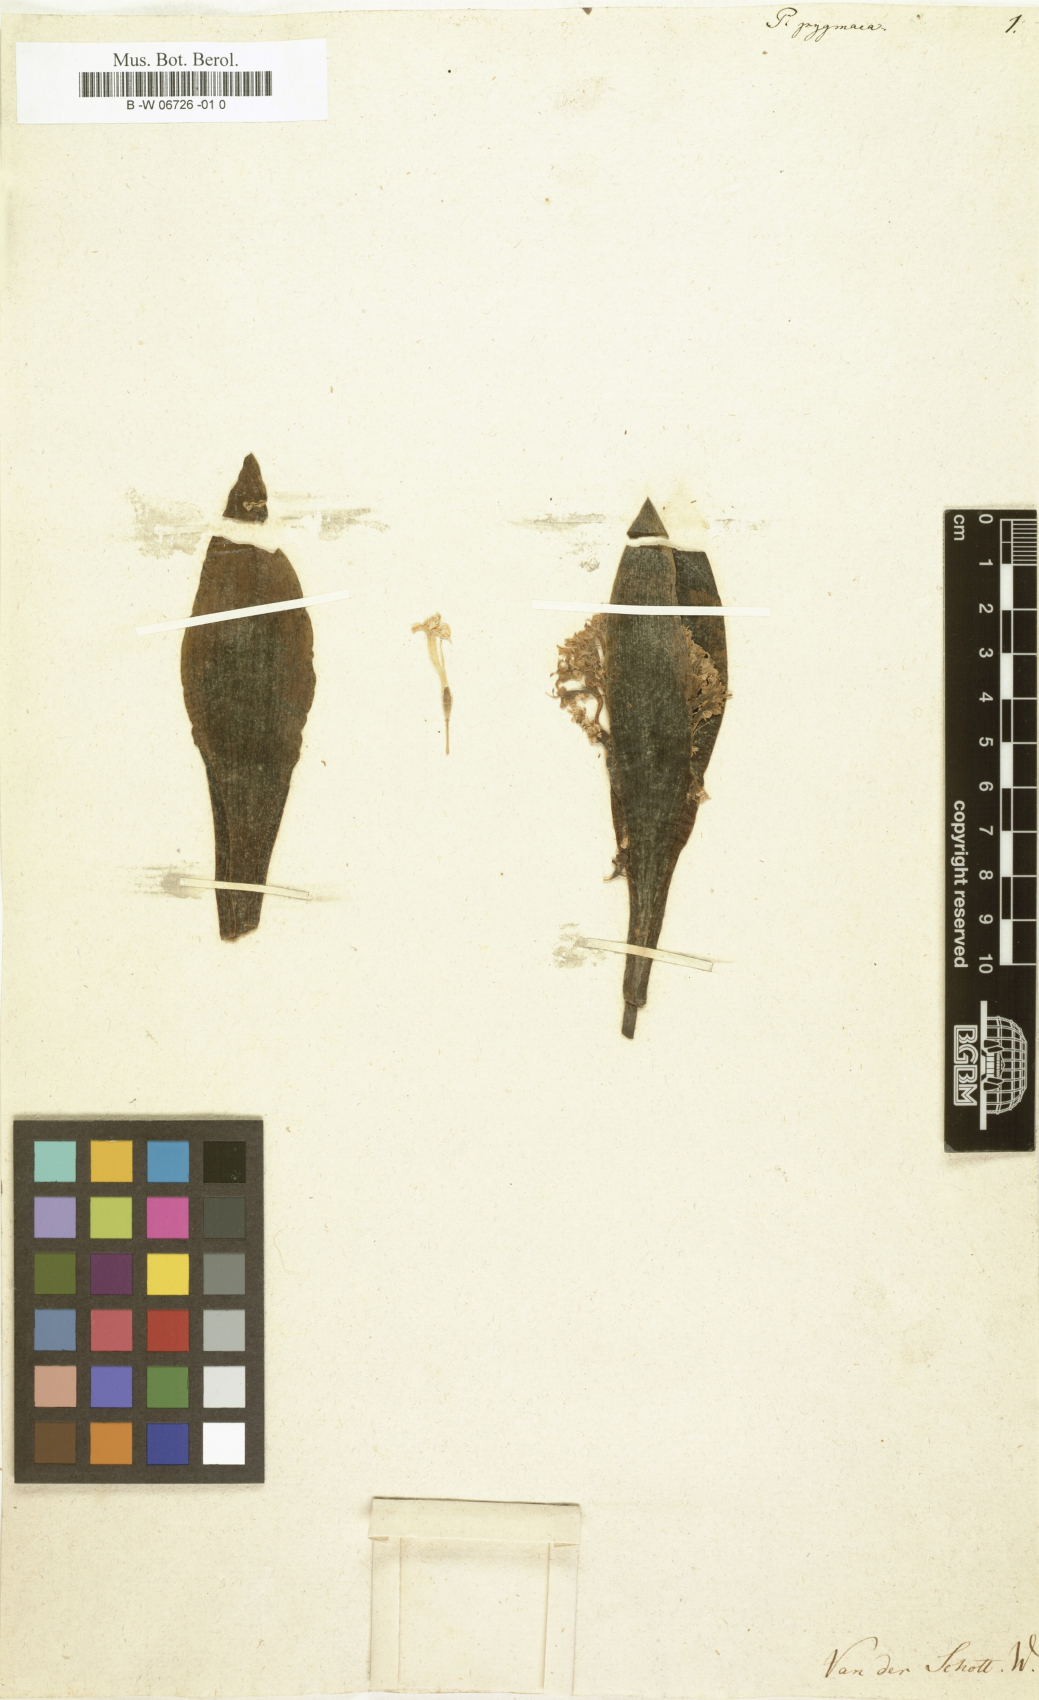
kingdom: Plantae
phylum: Tracheophyta
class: Liliopsida
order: Asparagales
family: Asparagaceae
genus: Lachenalia
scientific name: Lachenalia pygmaea
